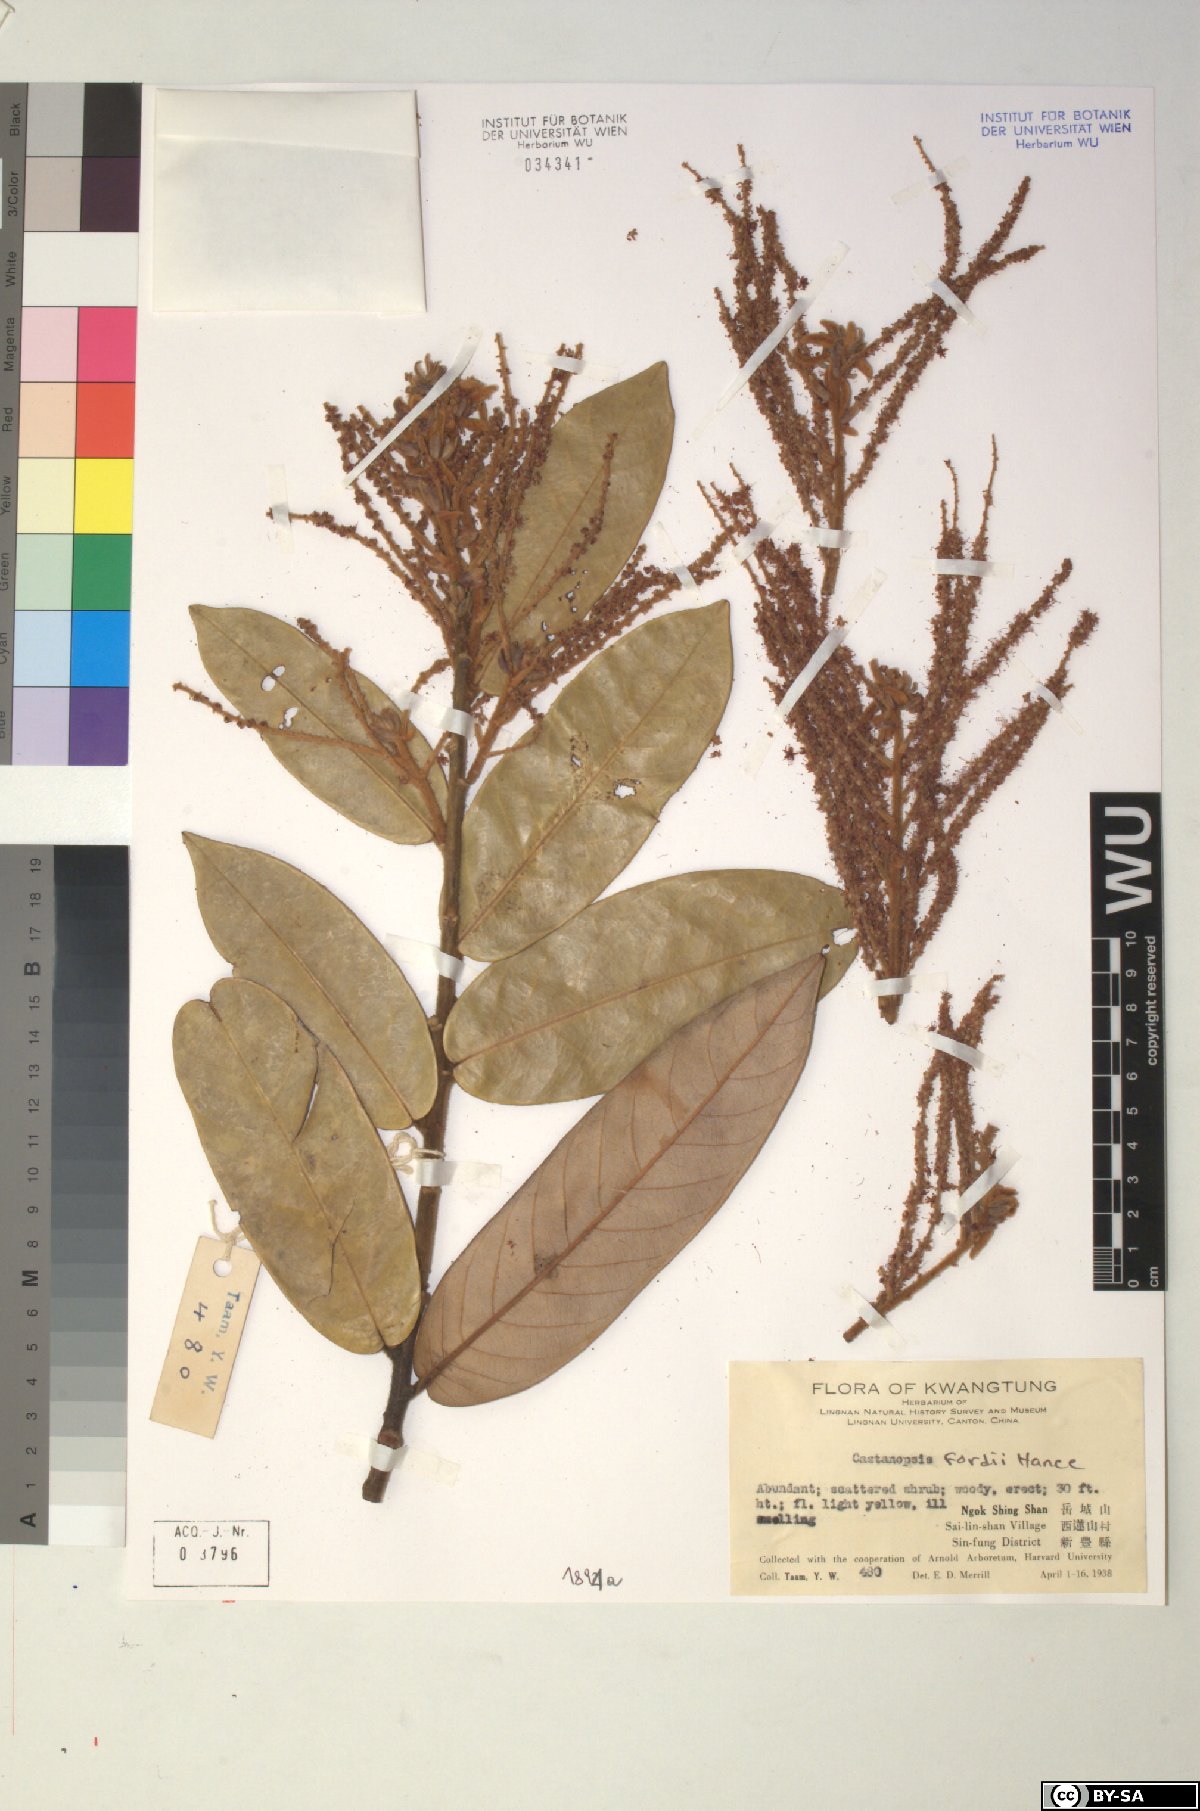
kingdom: Plantae
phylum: Tracheophyta
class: Magnoliopsida
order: Fagales
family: Fagaceae
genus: Castanopsis
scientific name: Castanopsis fordii
